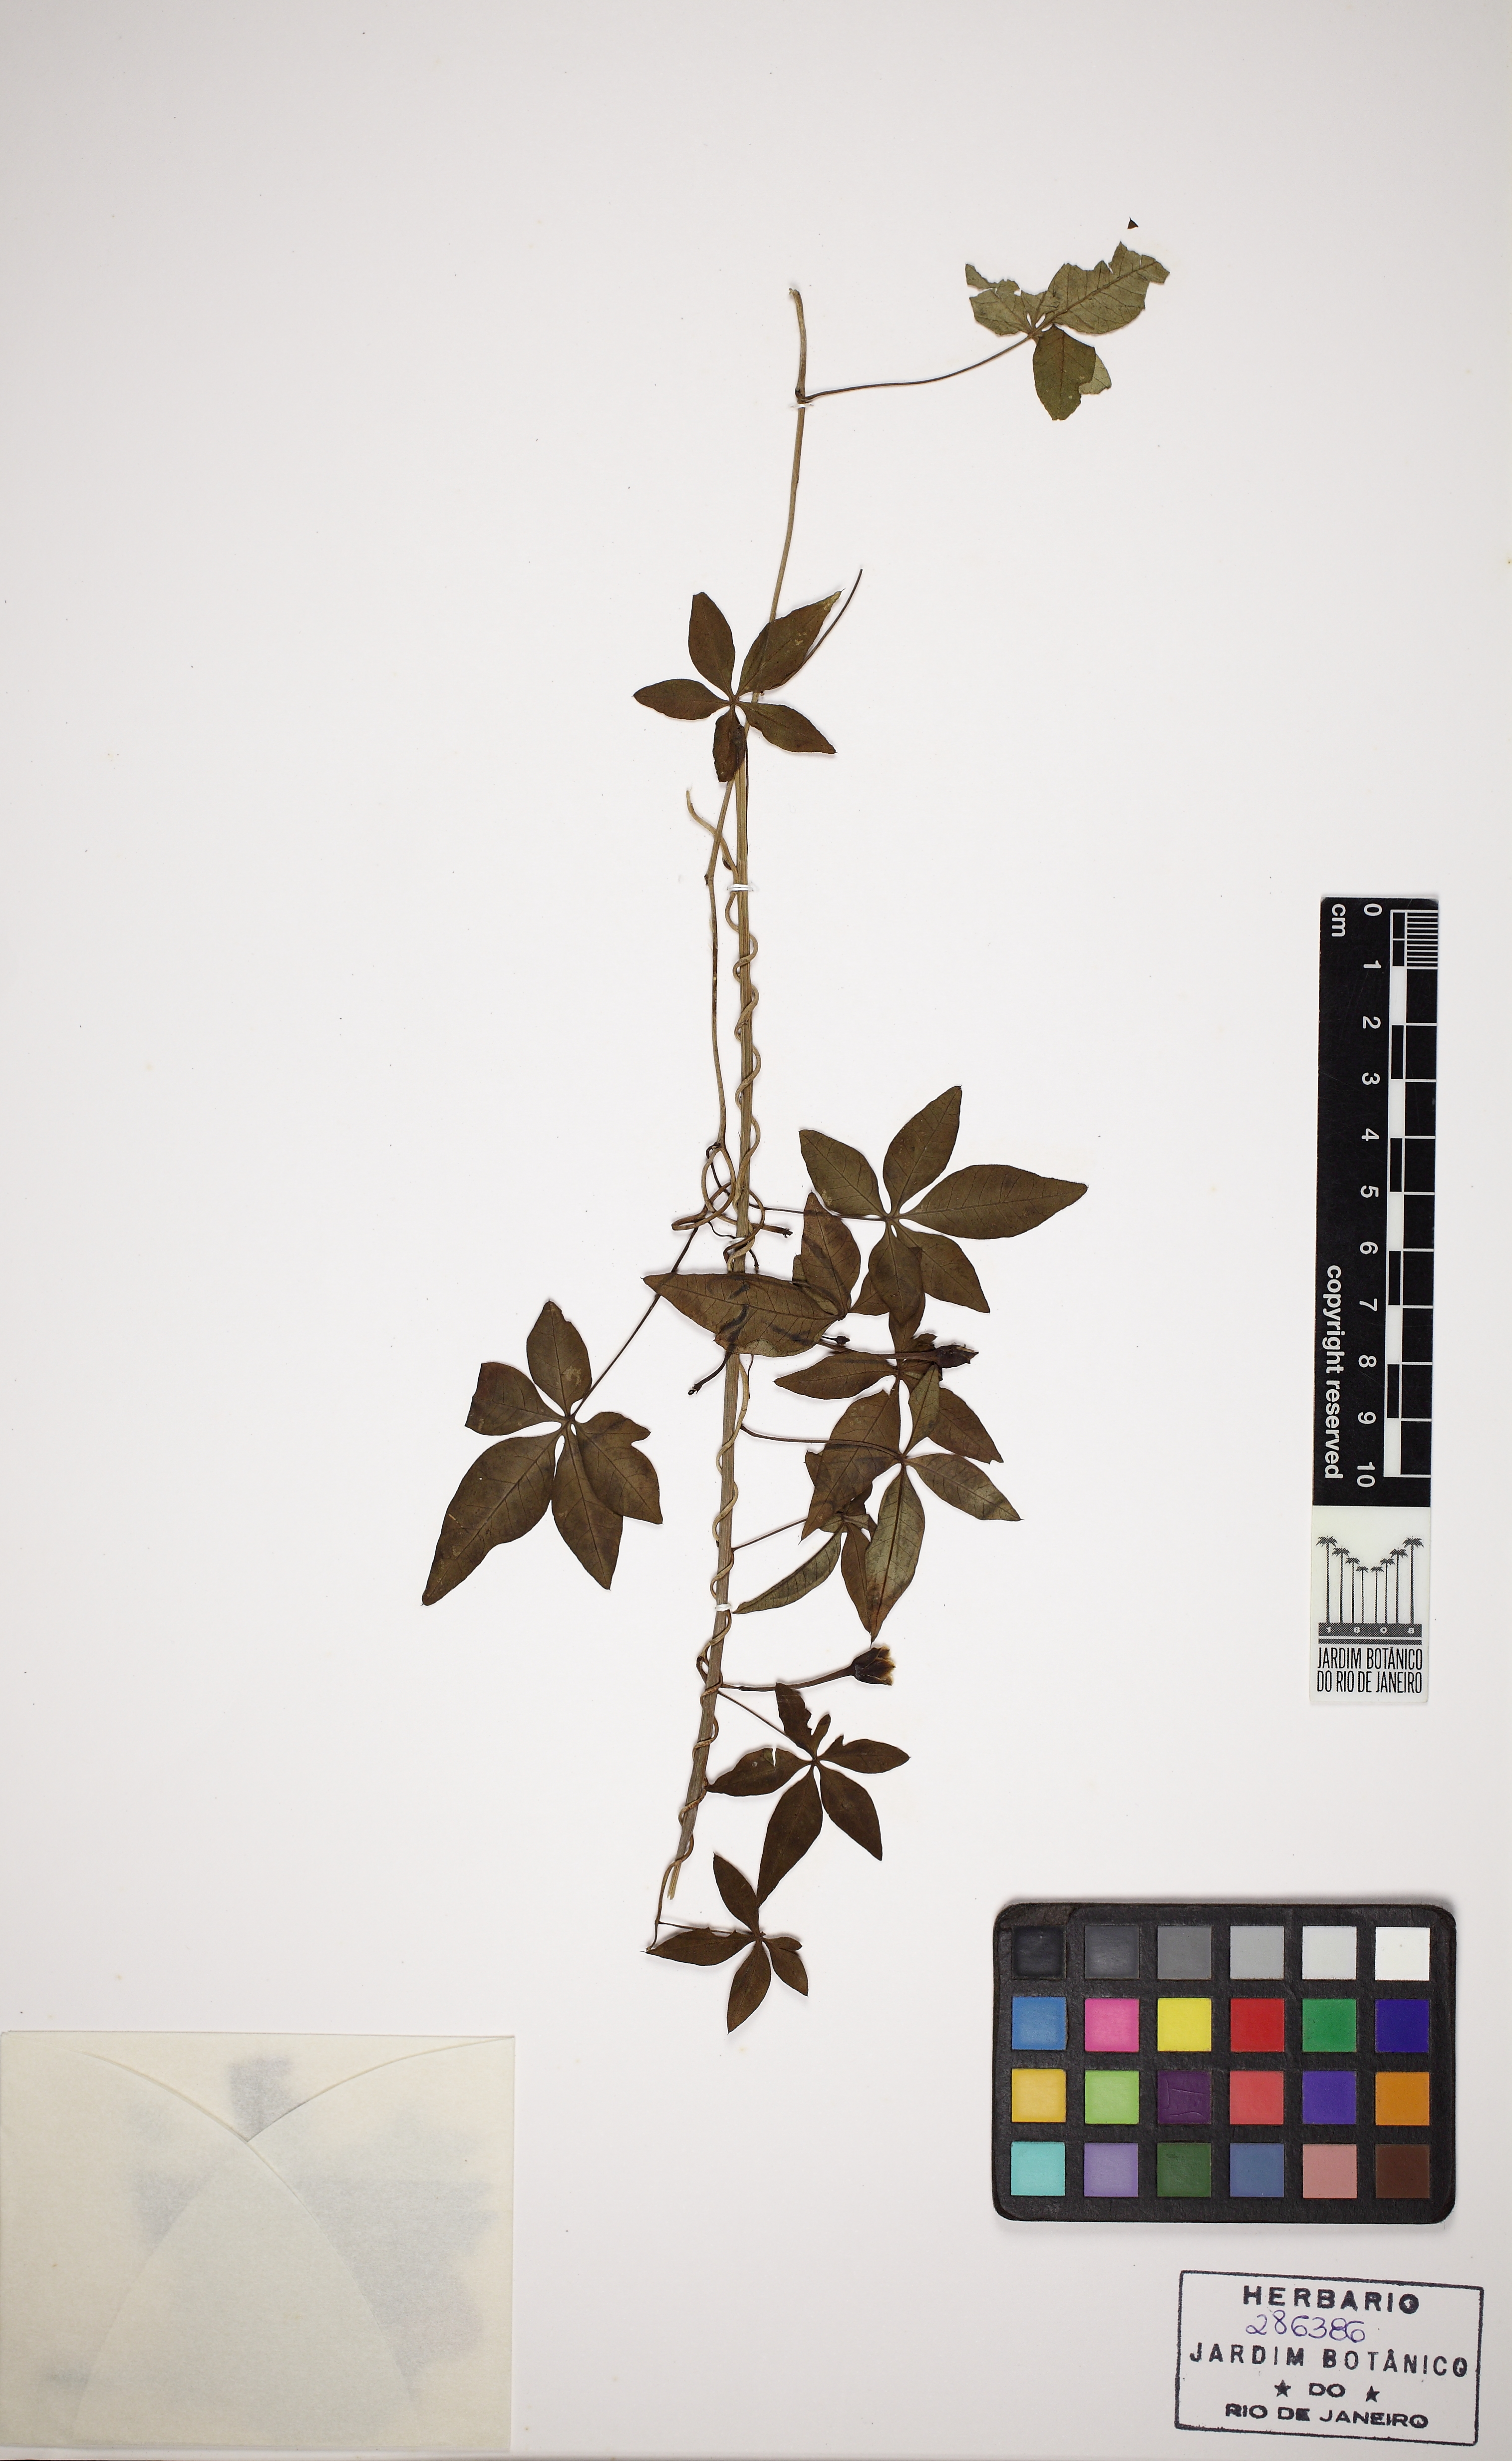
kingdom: Plantae
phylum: Tracheophyta
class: Magnoliopsida
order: Solanales
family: Convolvulaceae
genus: Ipomoea
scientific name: Ipomoea cairica
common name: Mile a minute vine
